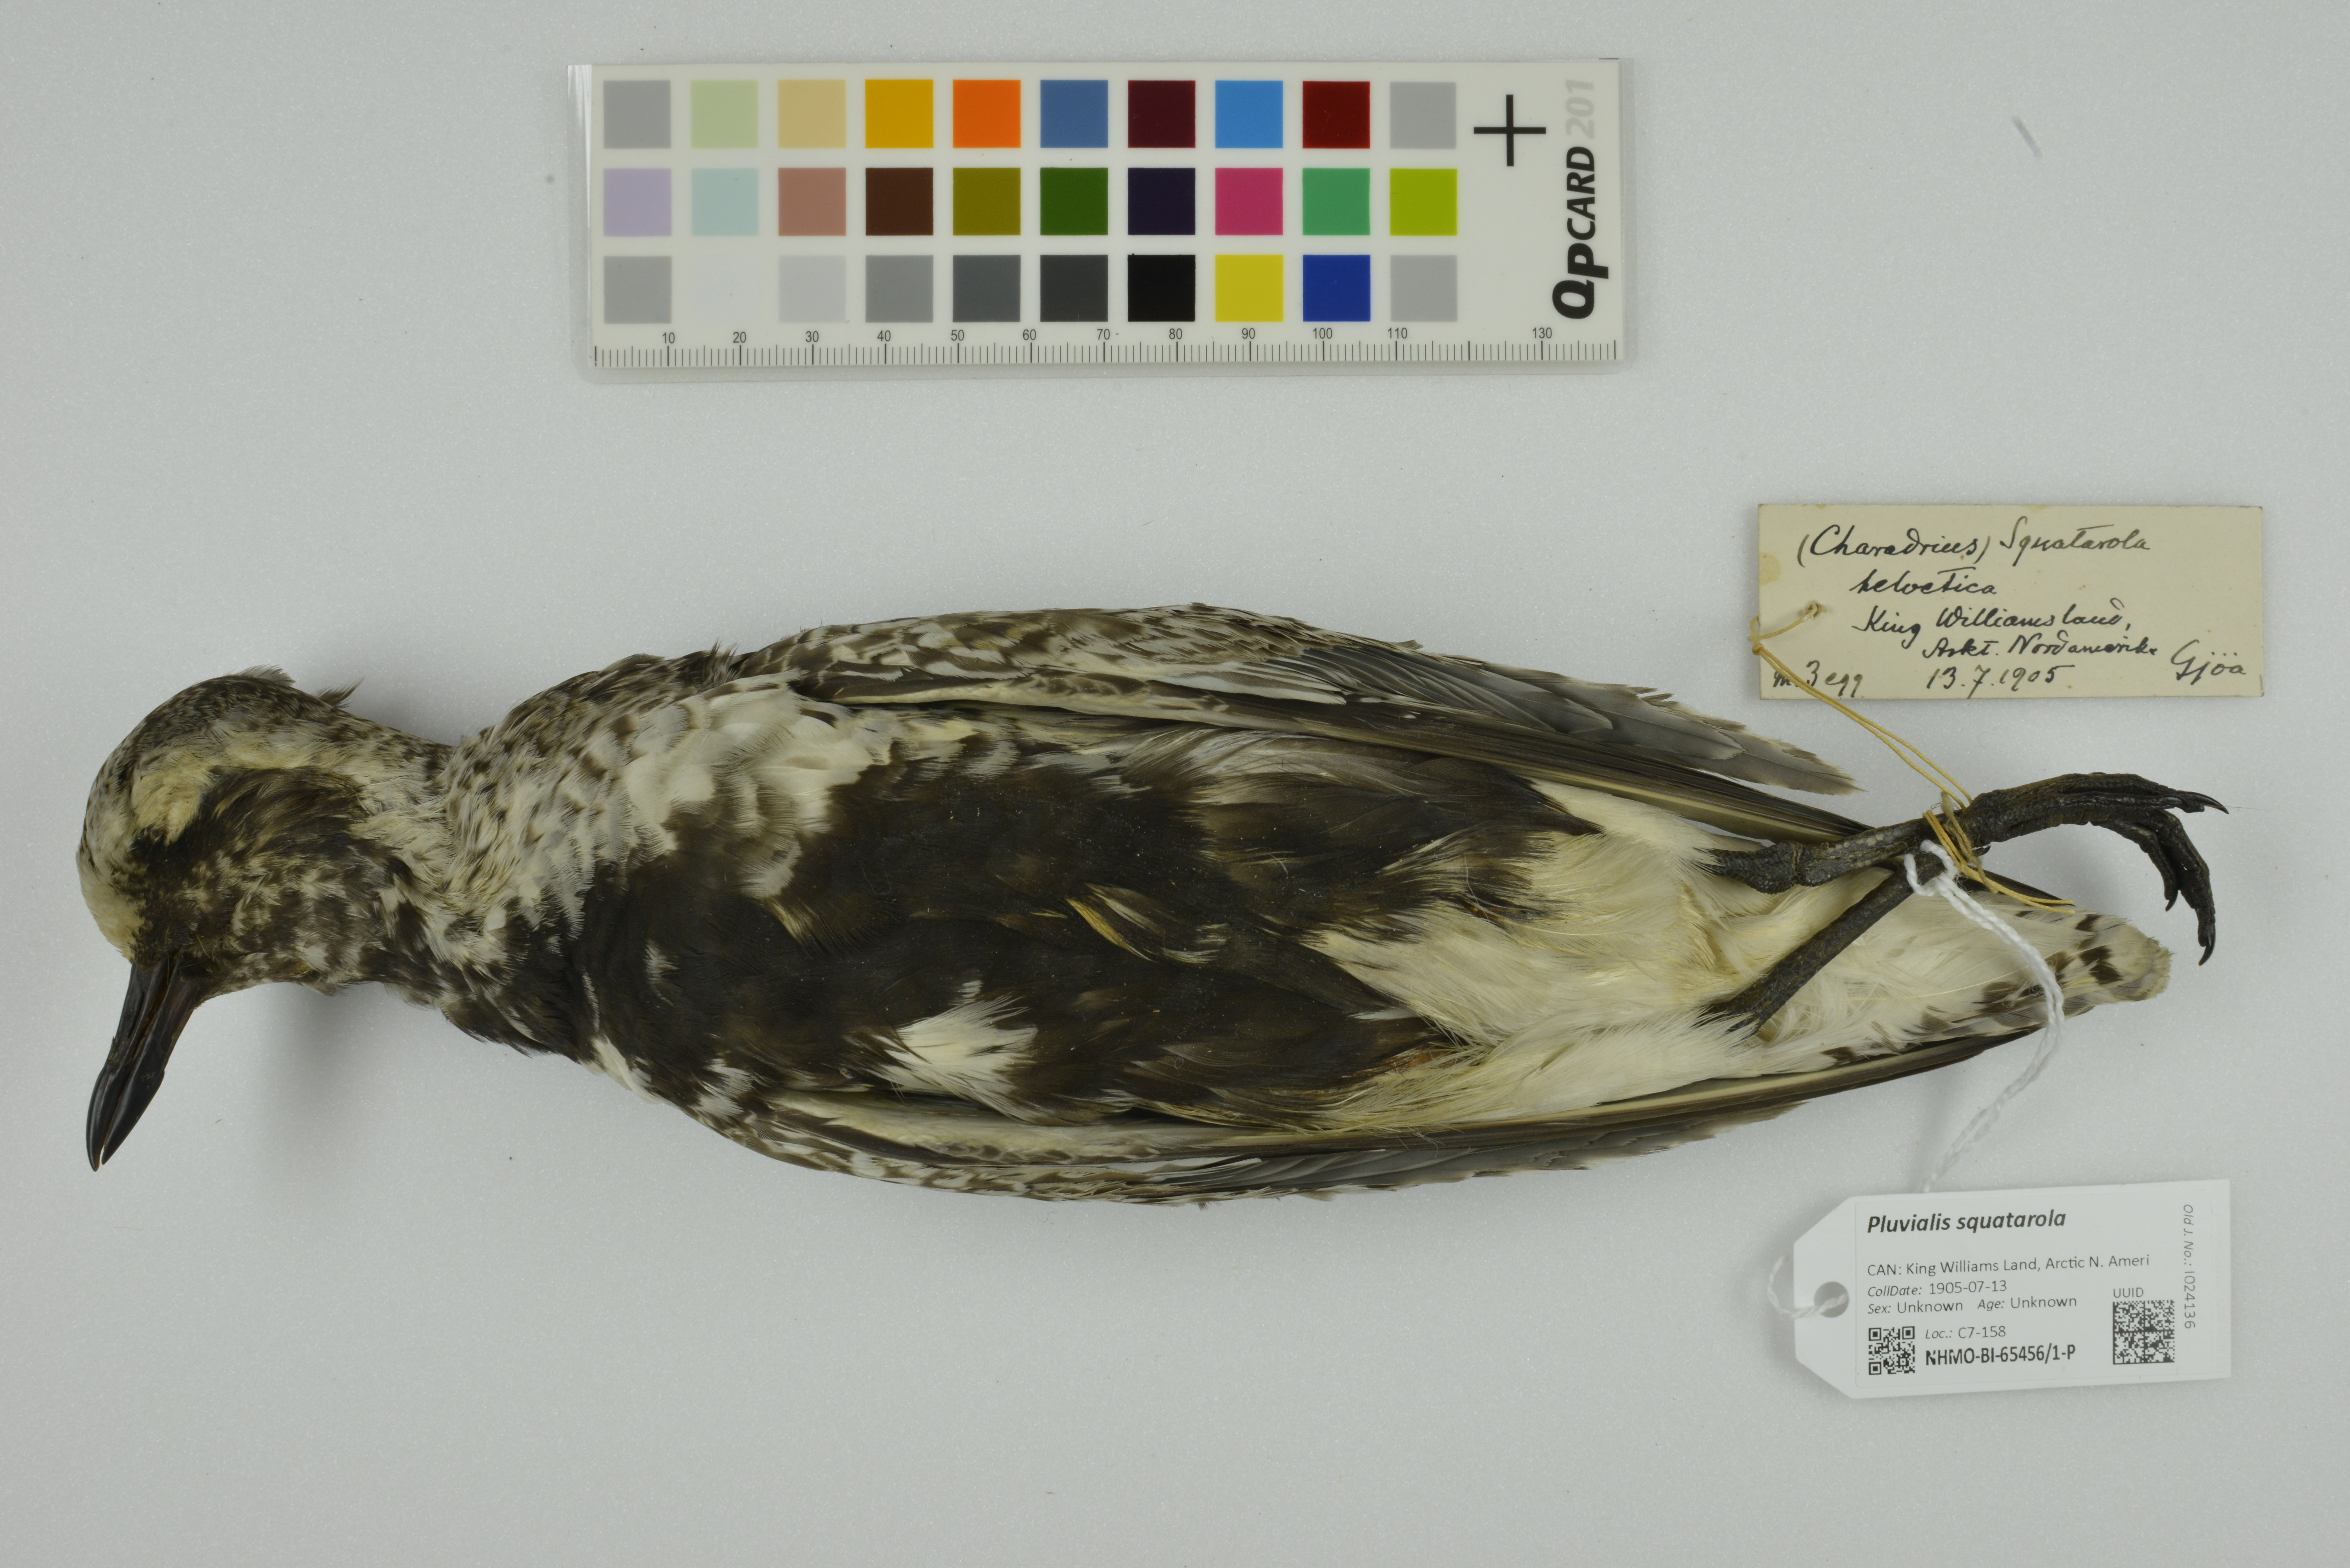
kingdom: Animalia
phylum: Chordata
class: Aves
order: Charadriiformes
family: Charadriidae
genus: Pluvialis
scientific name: Pluvialis squatarola
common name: Grey plover
